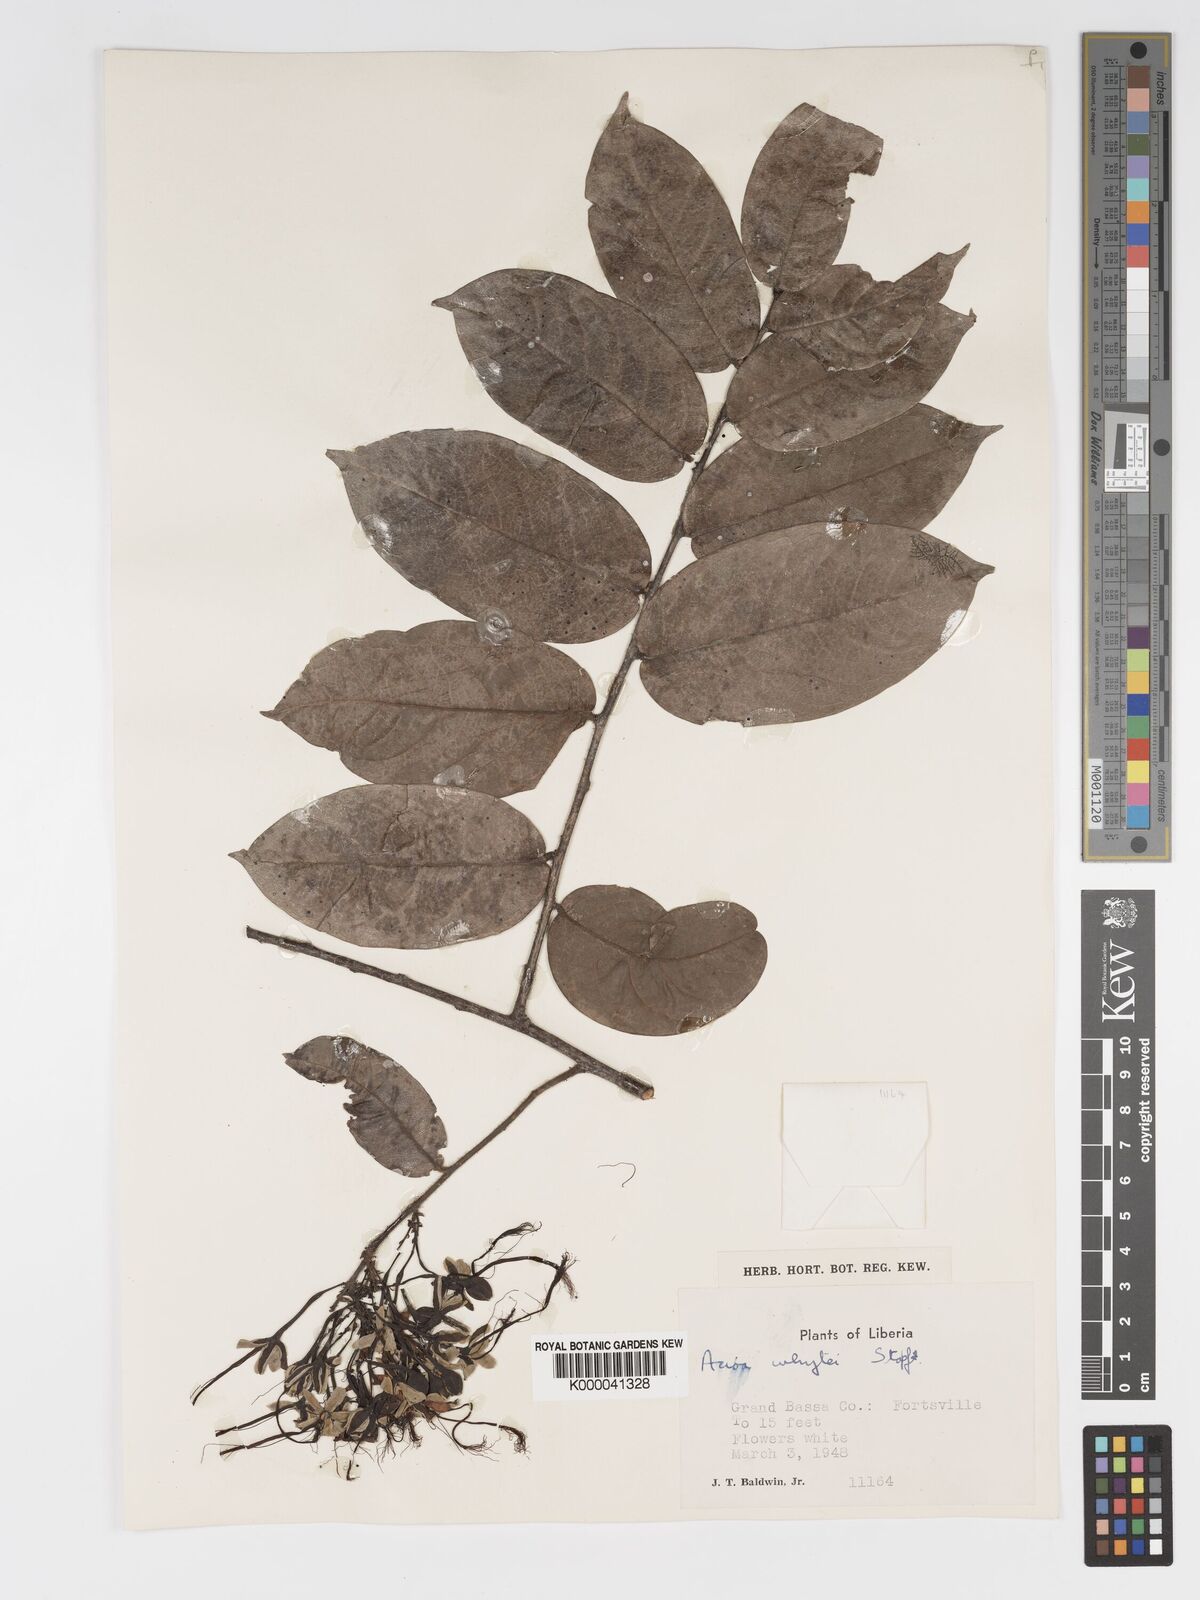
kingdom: Plantae
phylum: Tracheophyta
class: Magnoliopsida
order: Malpighiales
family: Chrysobalanaceae
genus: Dactyladenia
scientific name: Dactyladenia whytei
